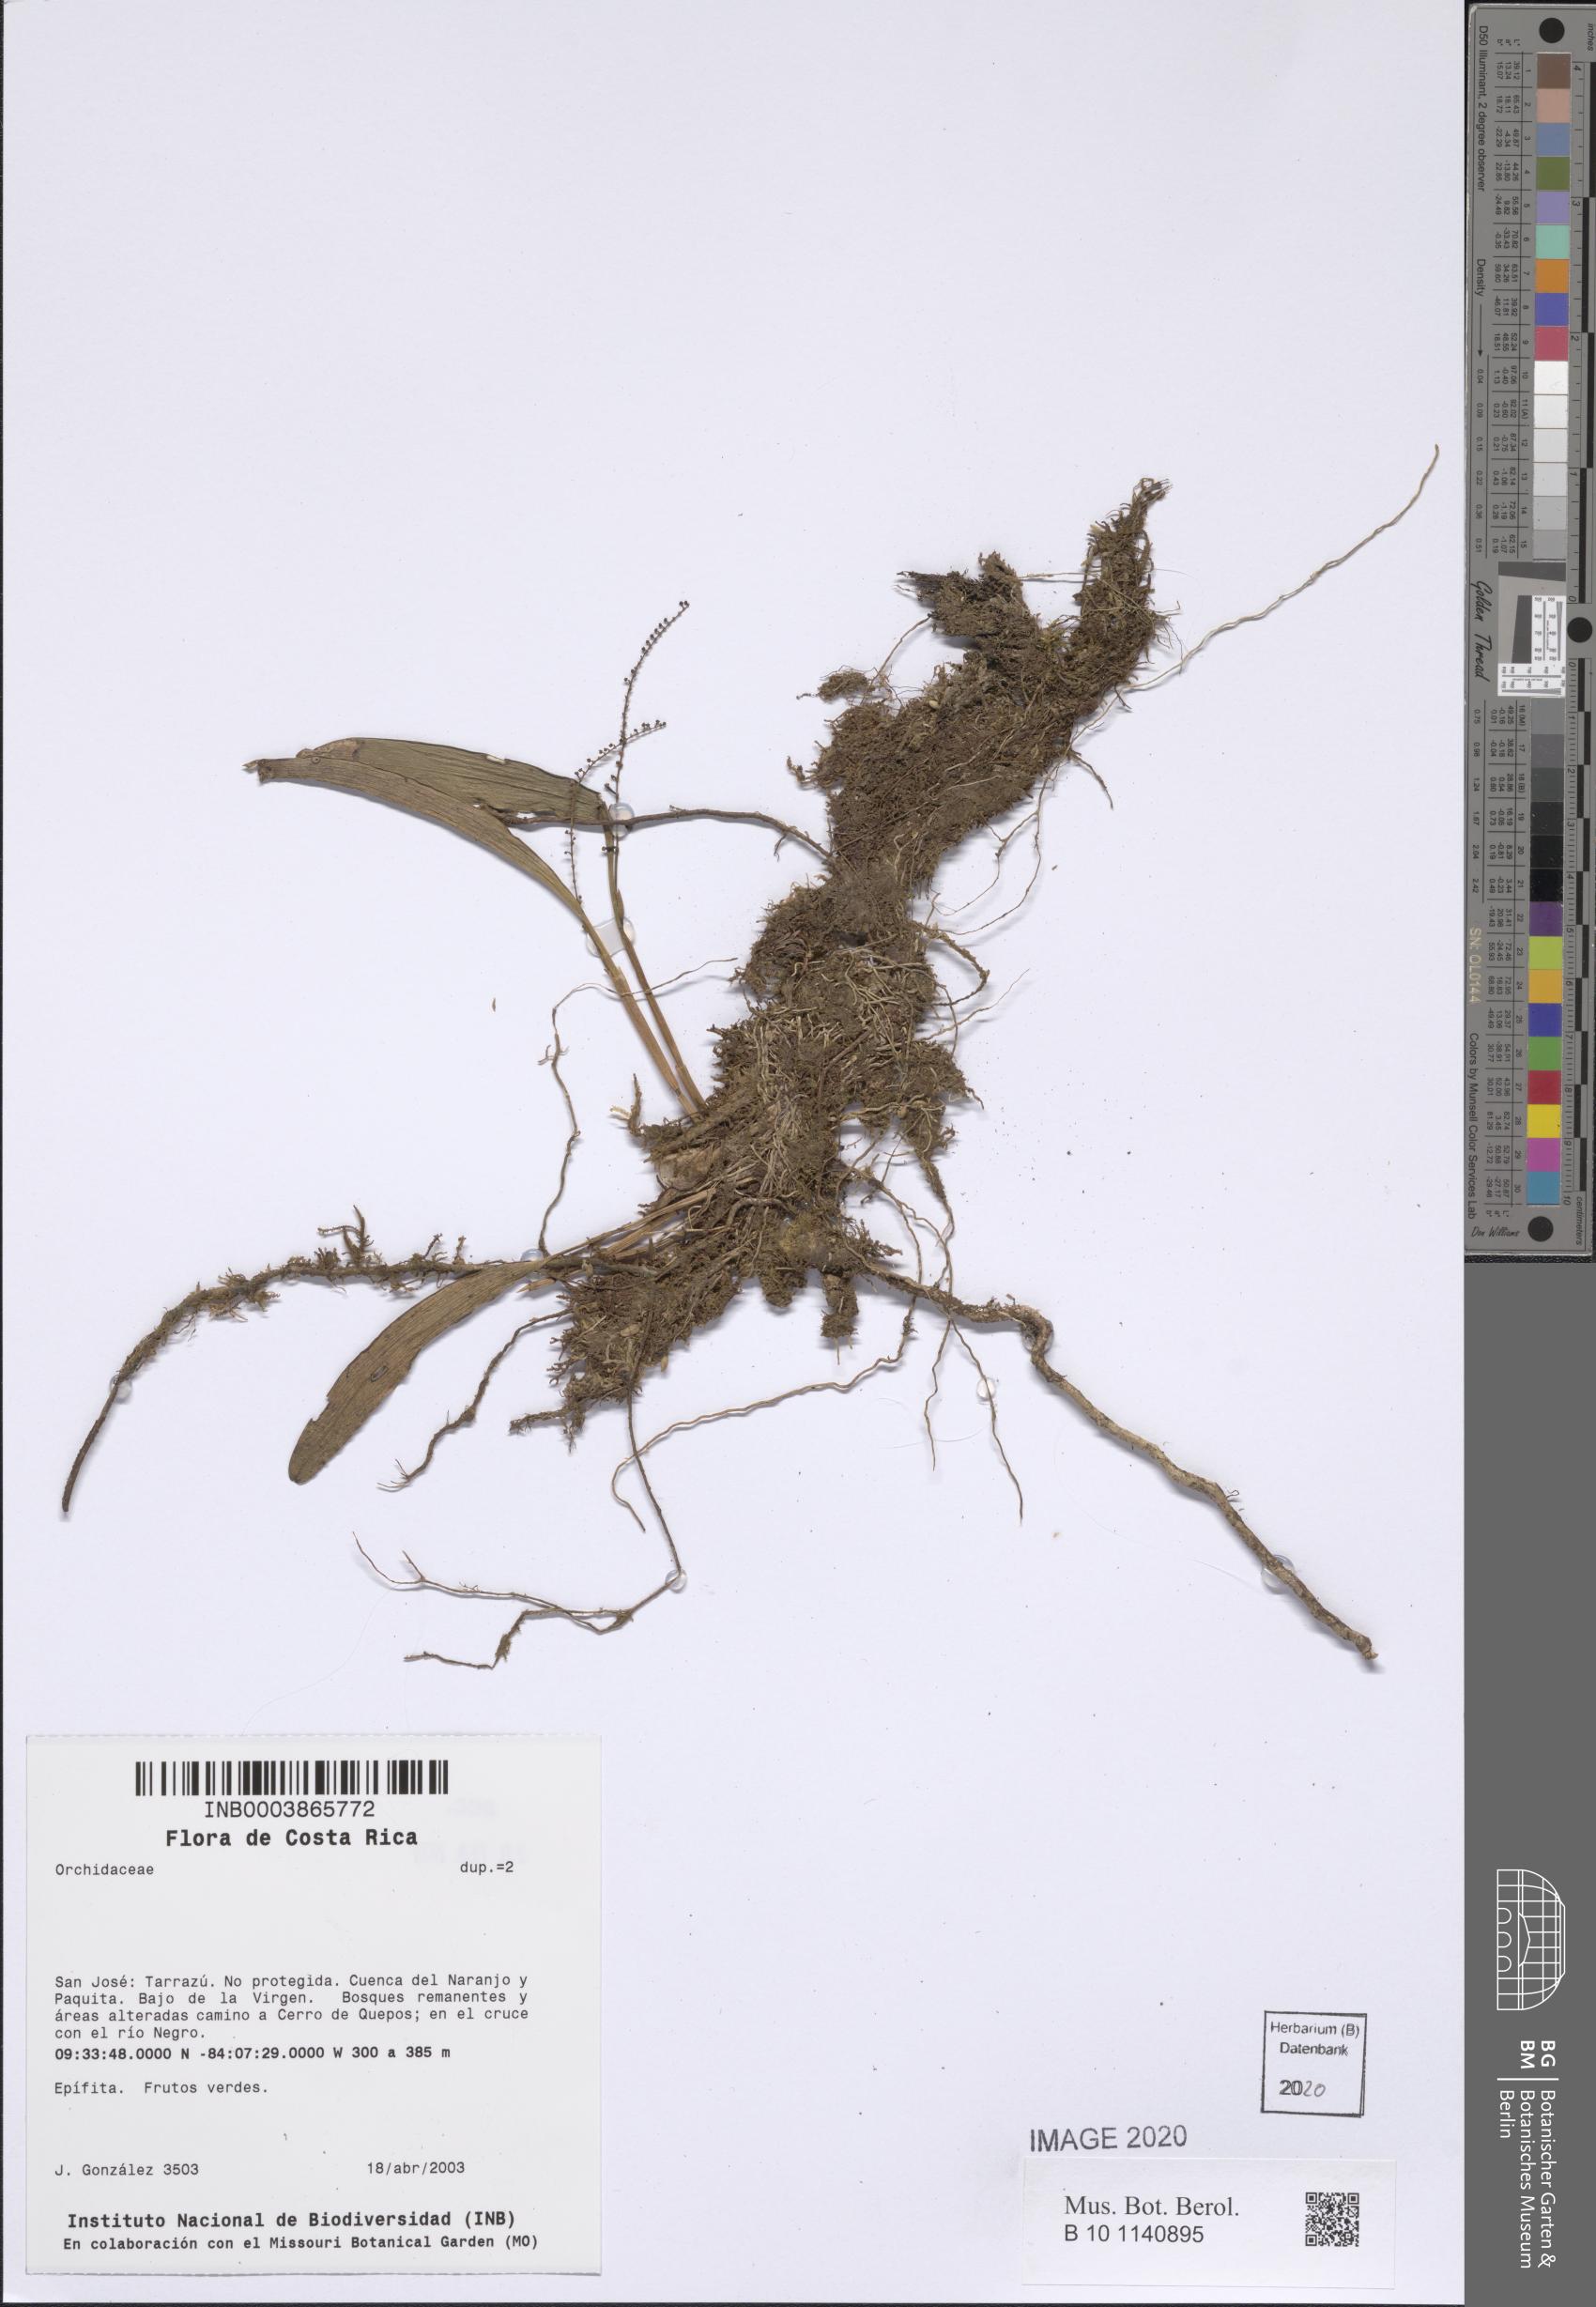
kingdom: Plantae
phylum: Tracheophyta
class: Liliopsida
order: Asparagales
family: Orchidaceae
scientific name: Orchidaceae
